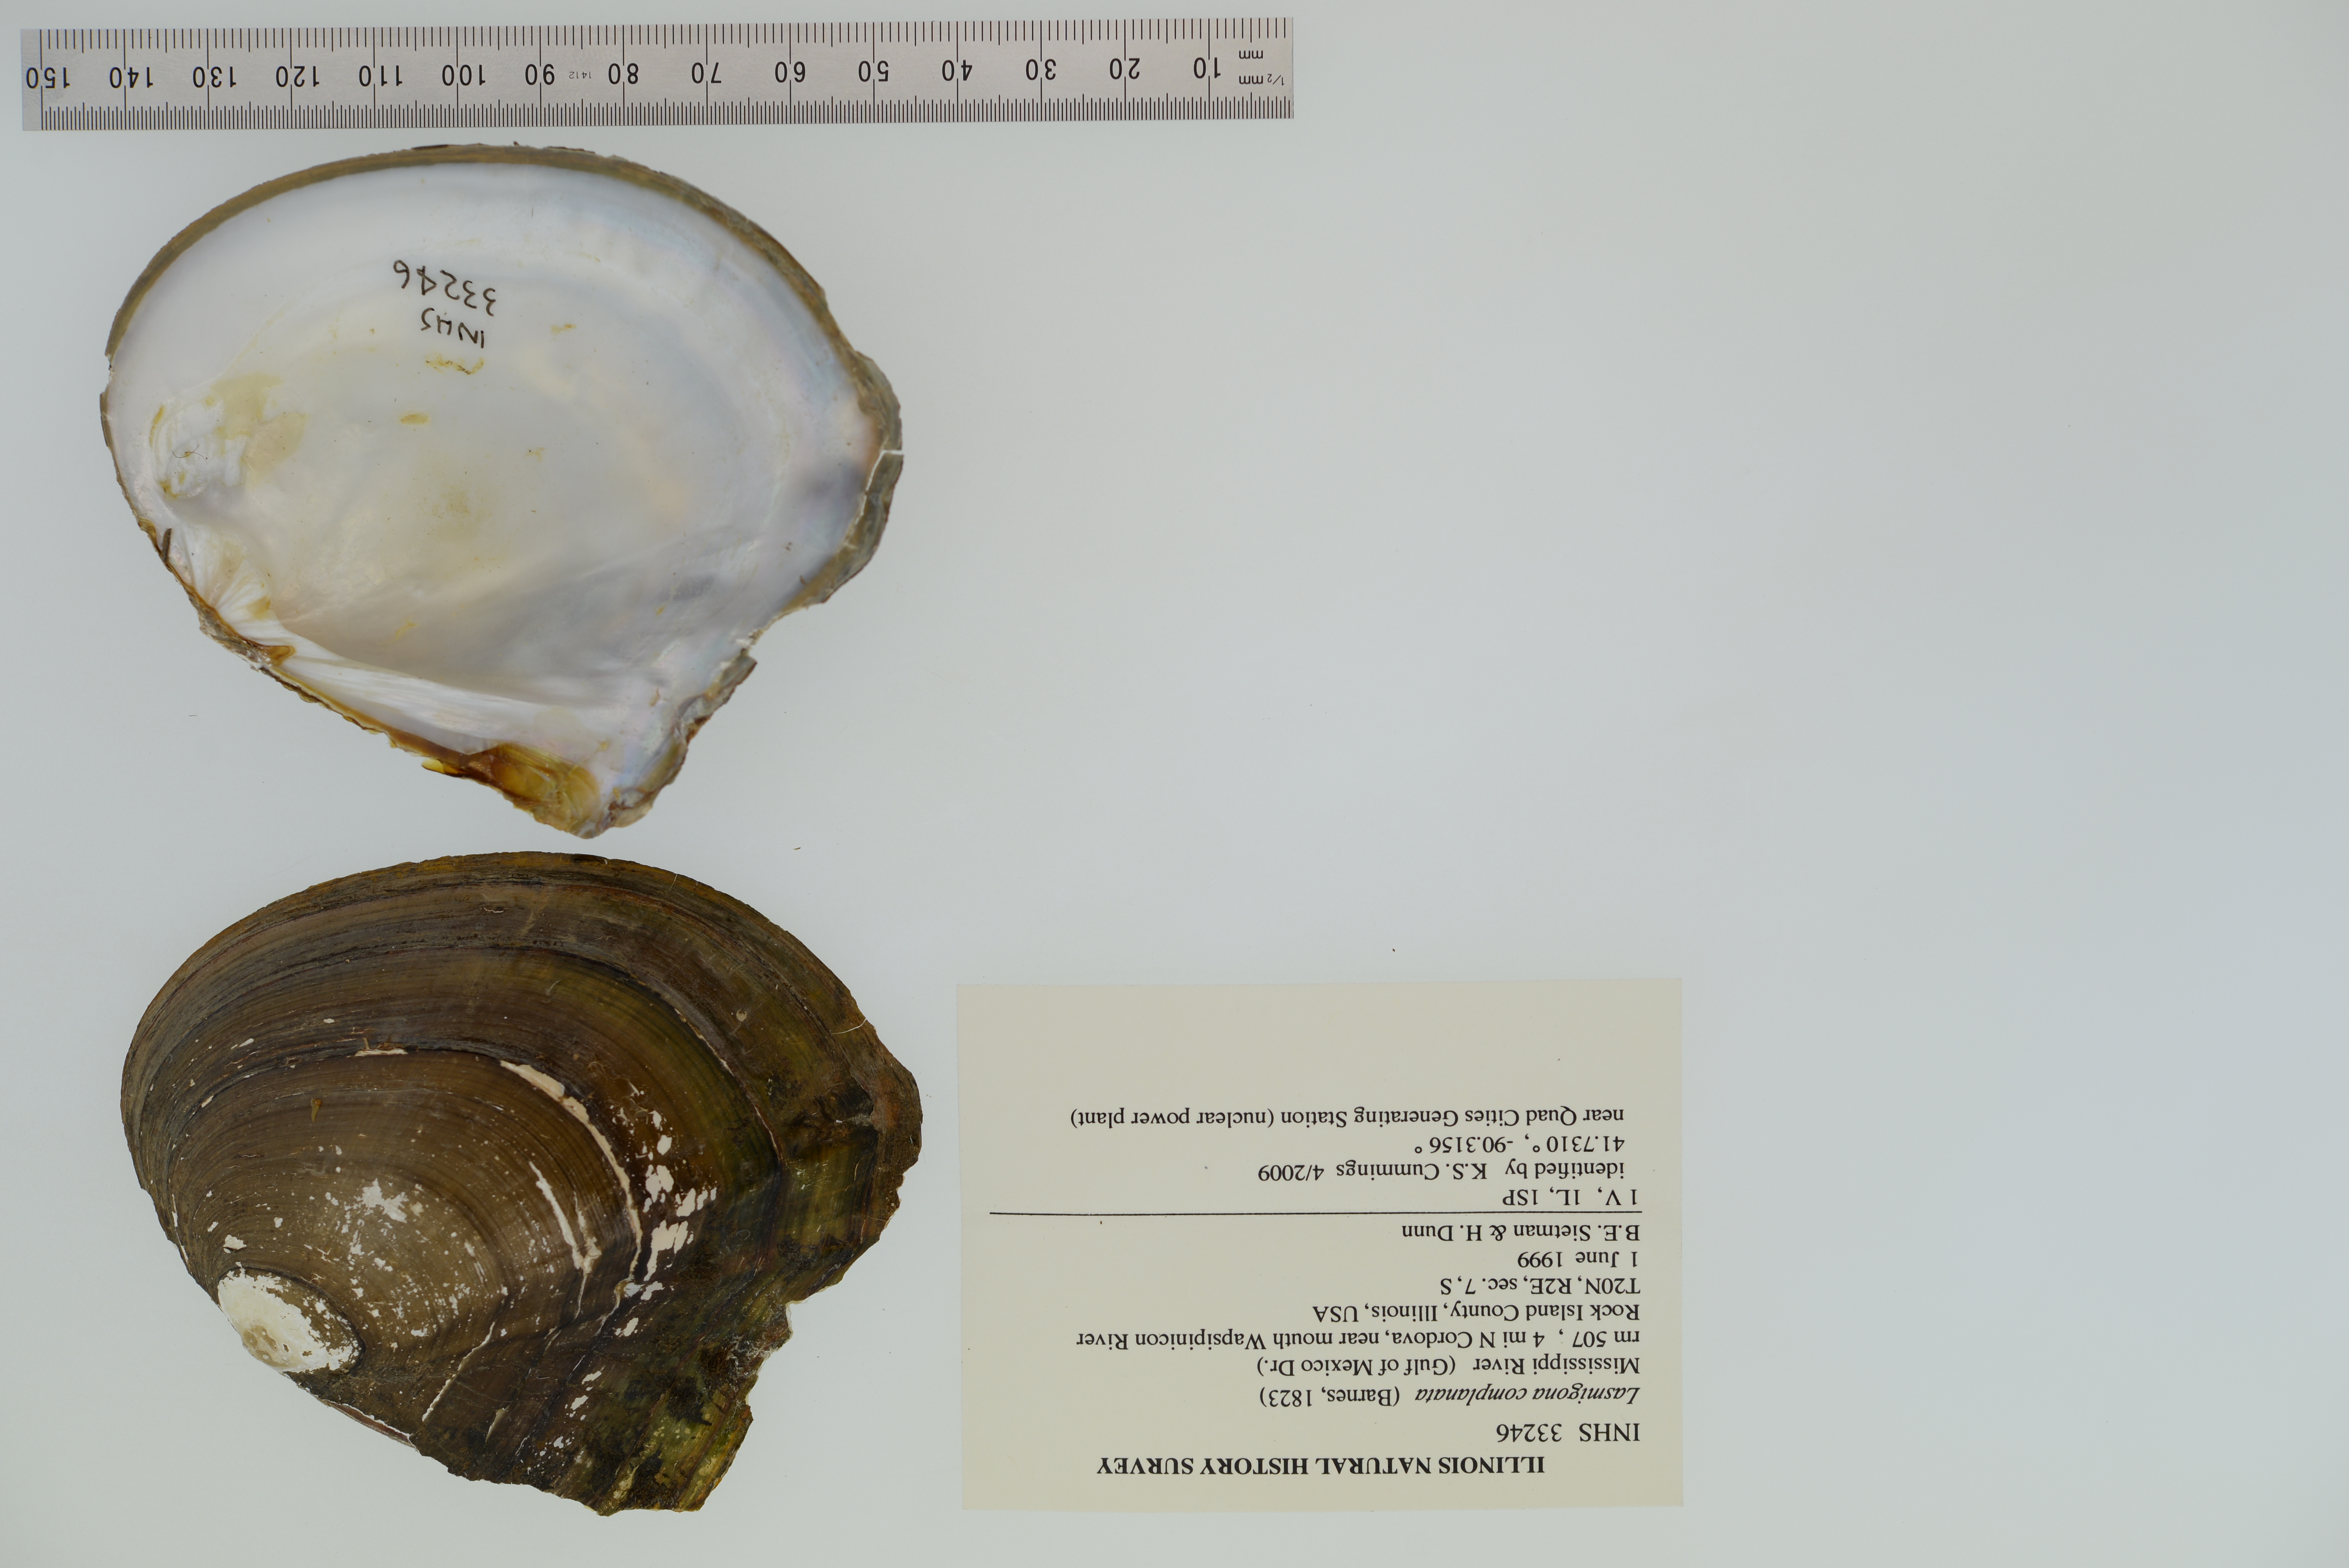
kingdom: Animalia
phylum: Mollusca
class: Bivalvia
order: Unionida
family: Unionidae
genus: Lasmigona
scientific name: Lasmigona complanata
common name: White heelsplitter
